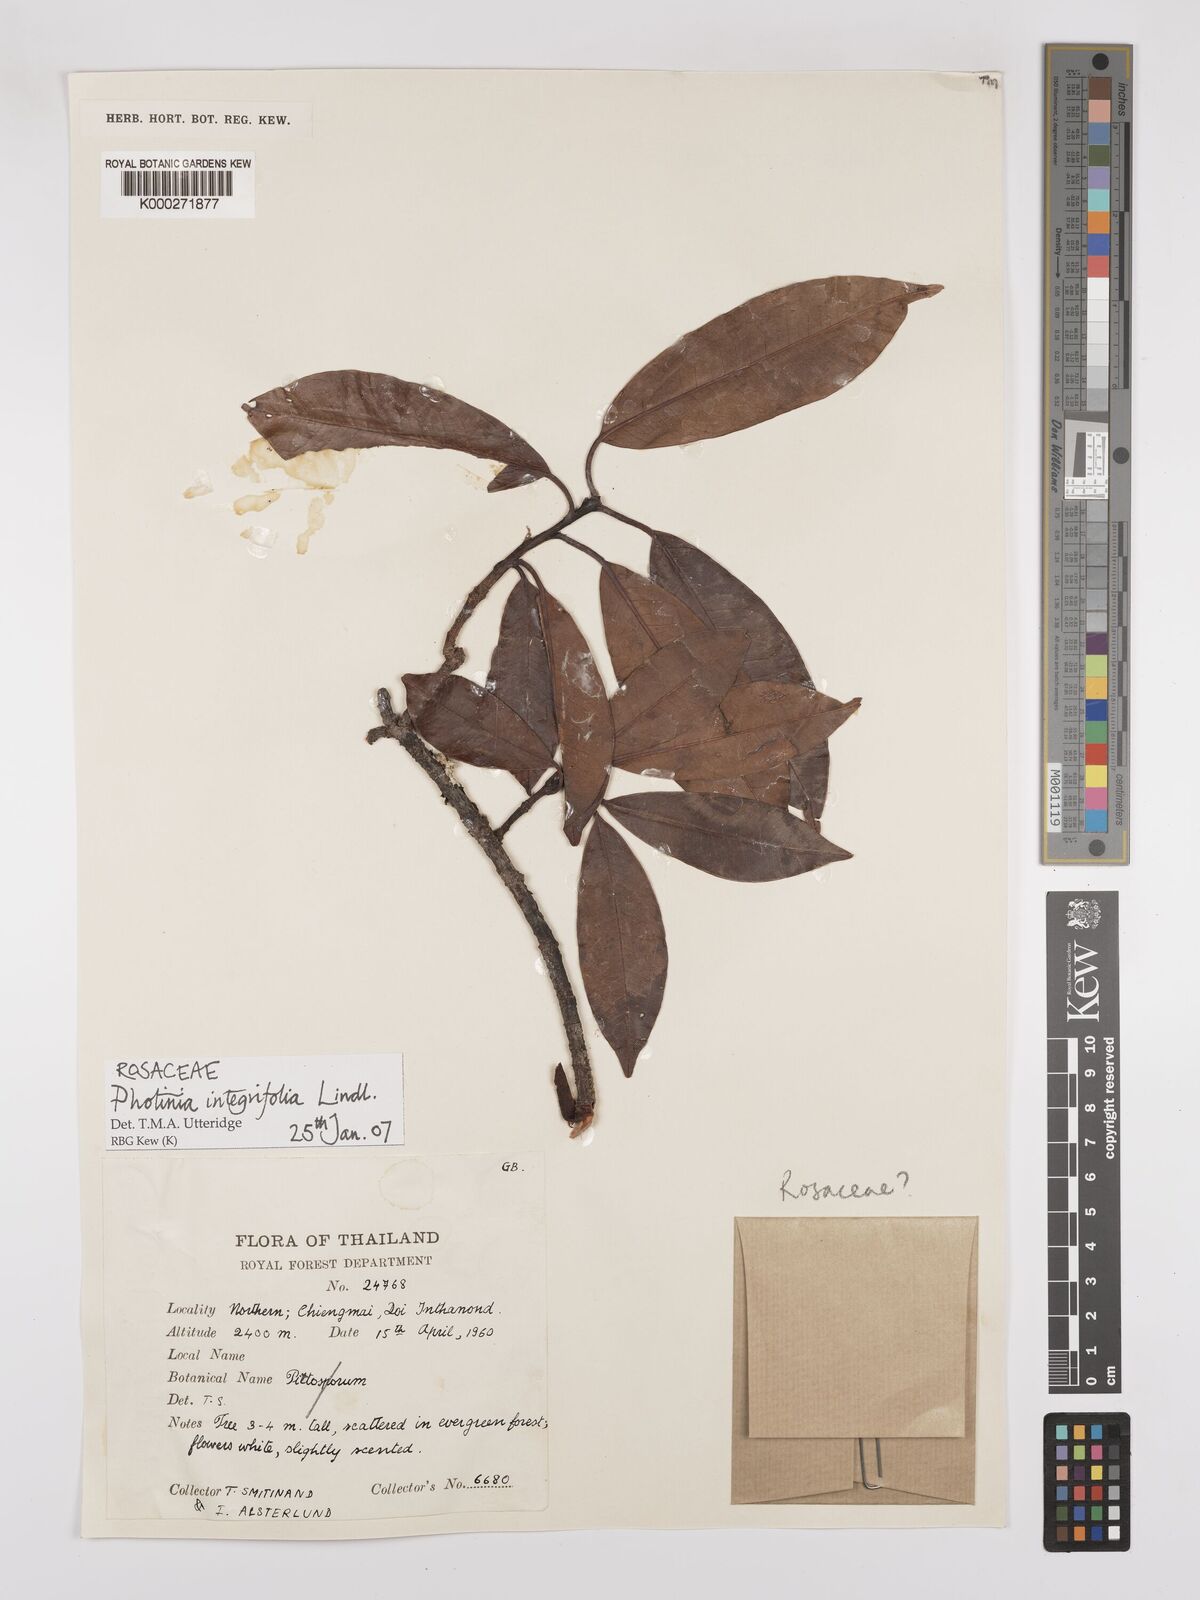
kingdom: Plantae
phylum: Tracheophyta
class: Magnoliopsida
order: Rosales
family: Rosaceae
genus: Photinia
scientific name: Photinia integrifolia
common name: Himalayan chokeberry
